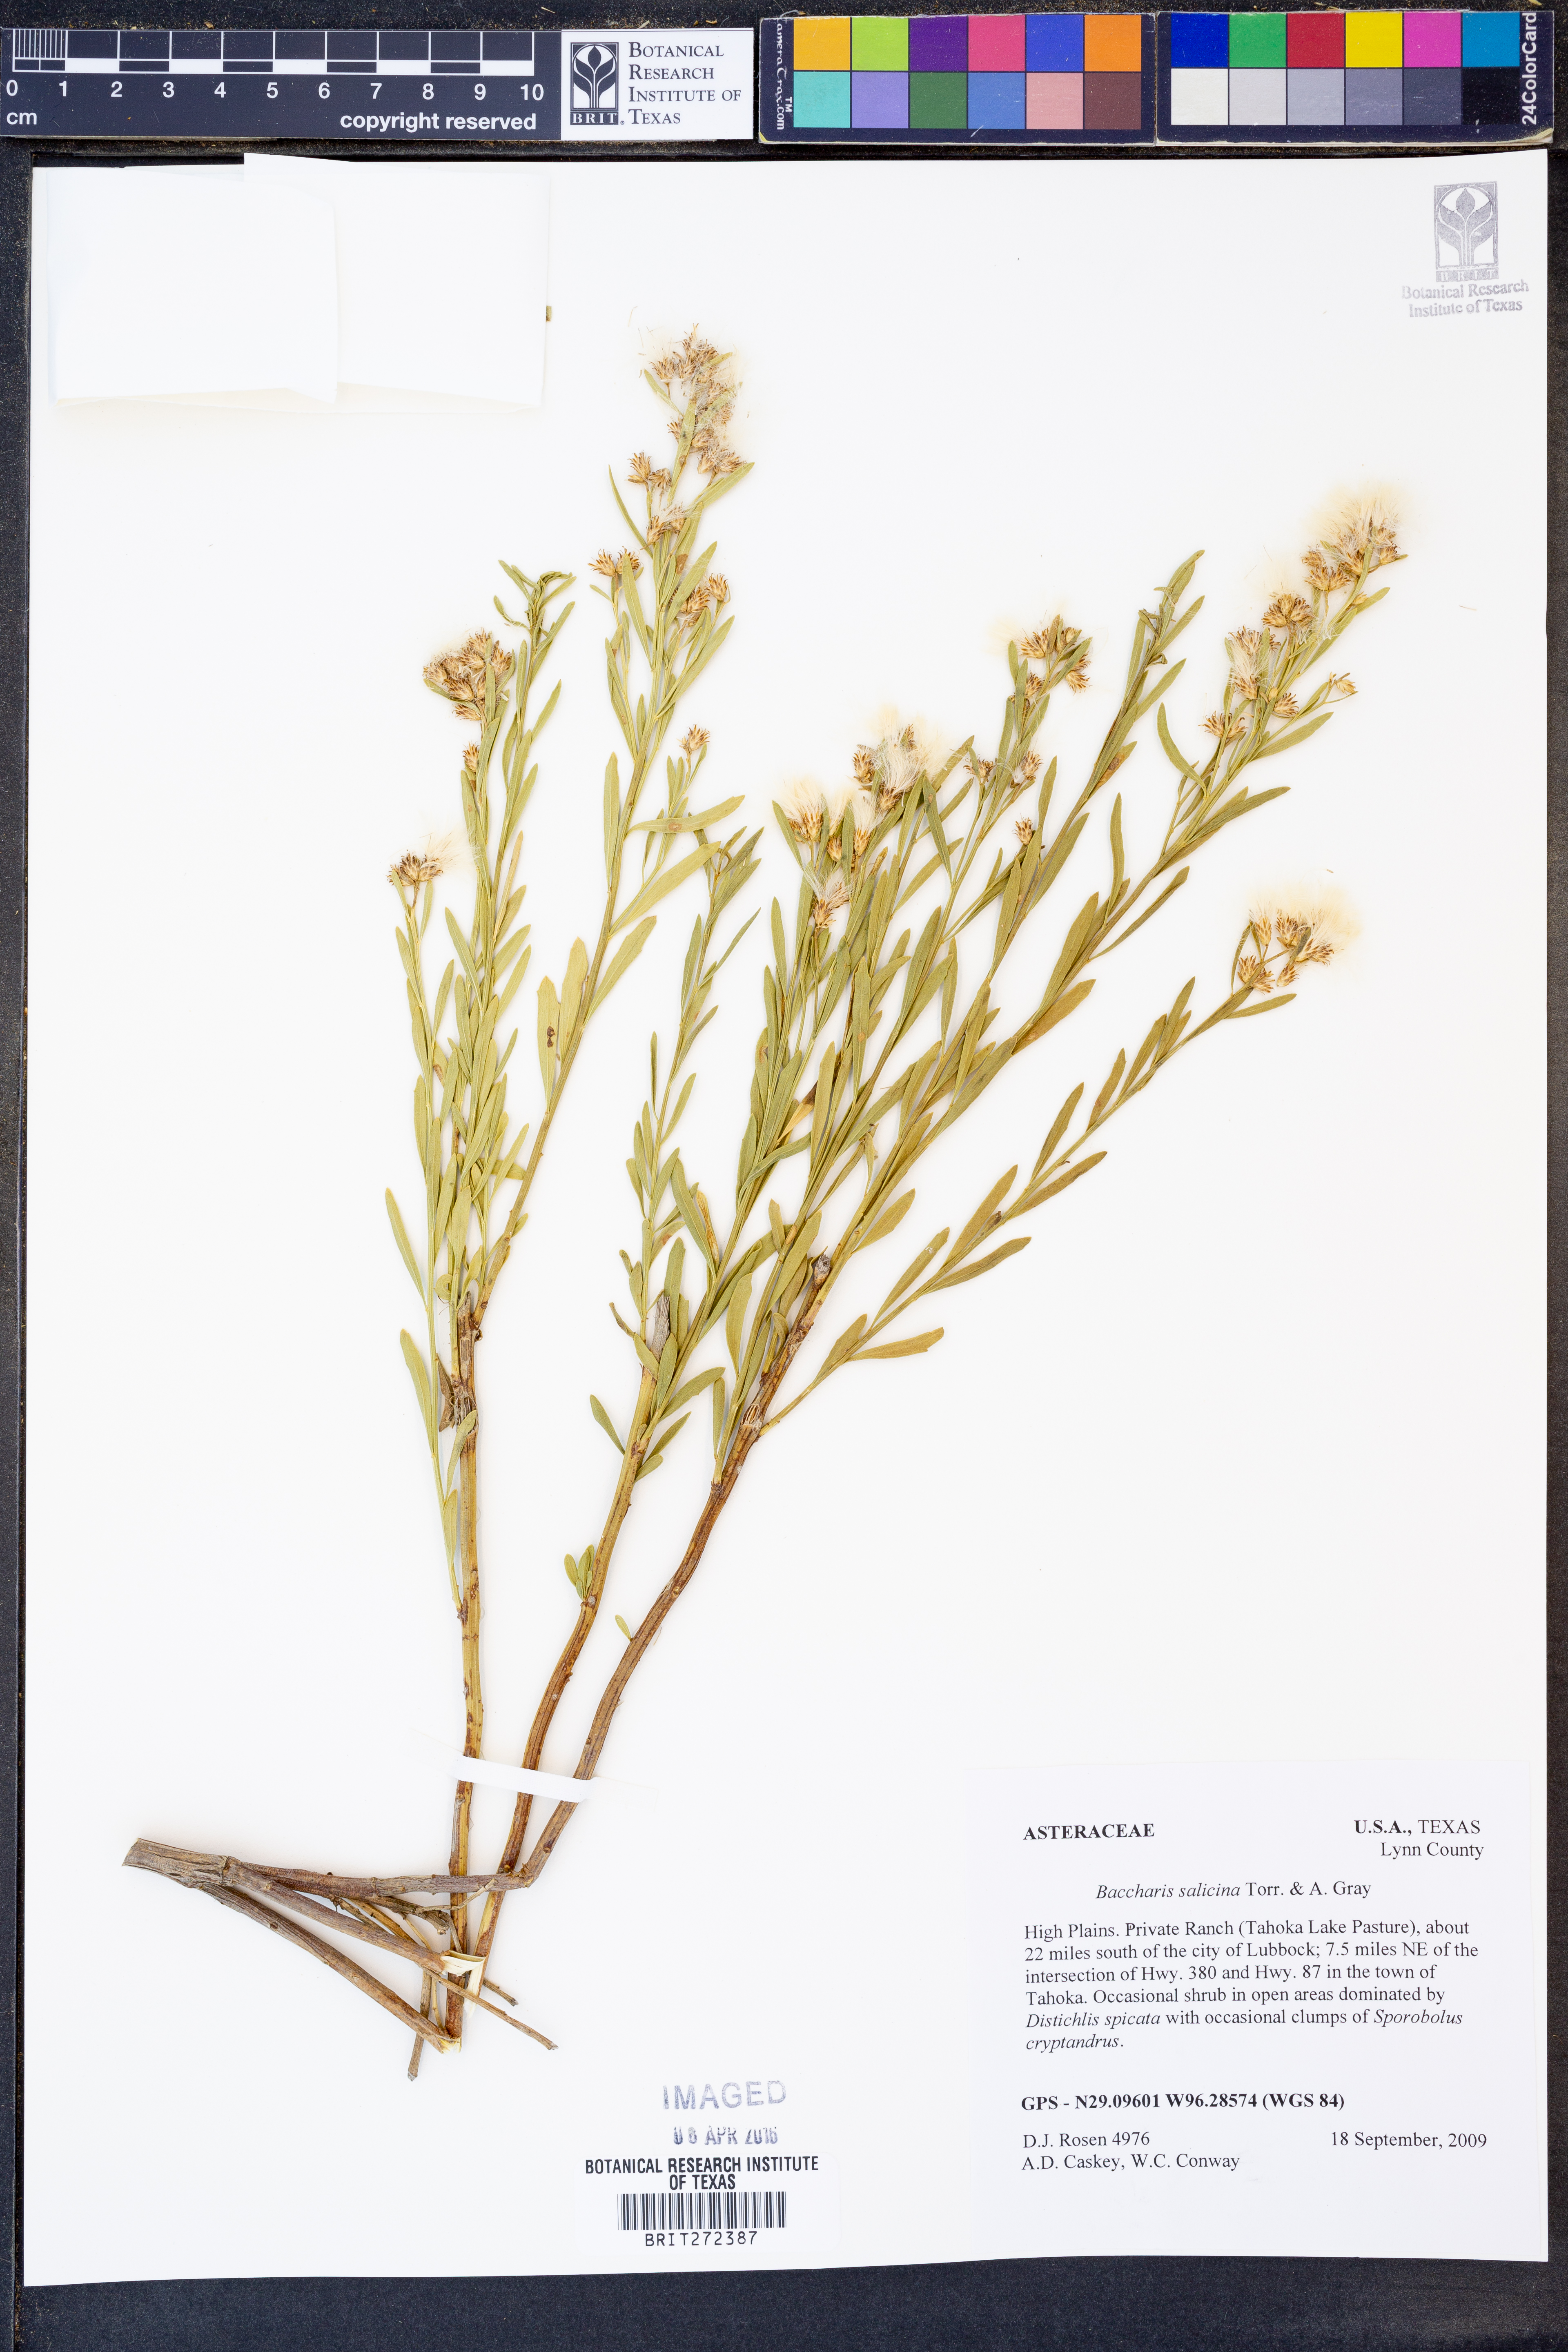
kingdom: Plantae
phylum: Tracheophyta
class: Magnoliopsida
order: Asterales
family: Asteraceae
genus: Baccharis
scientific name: Baccharis salicina
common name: Willow baccharis
